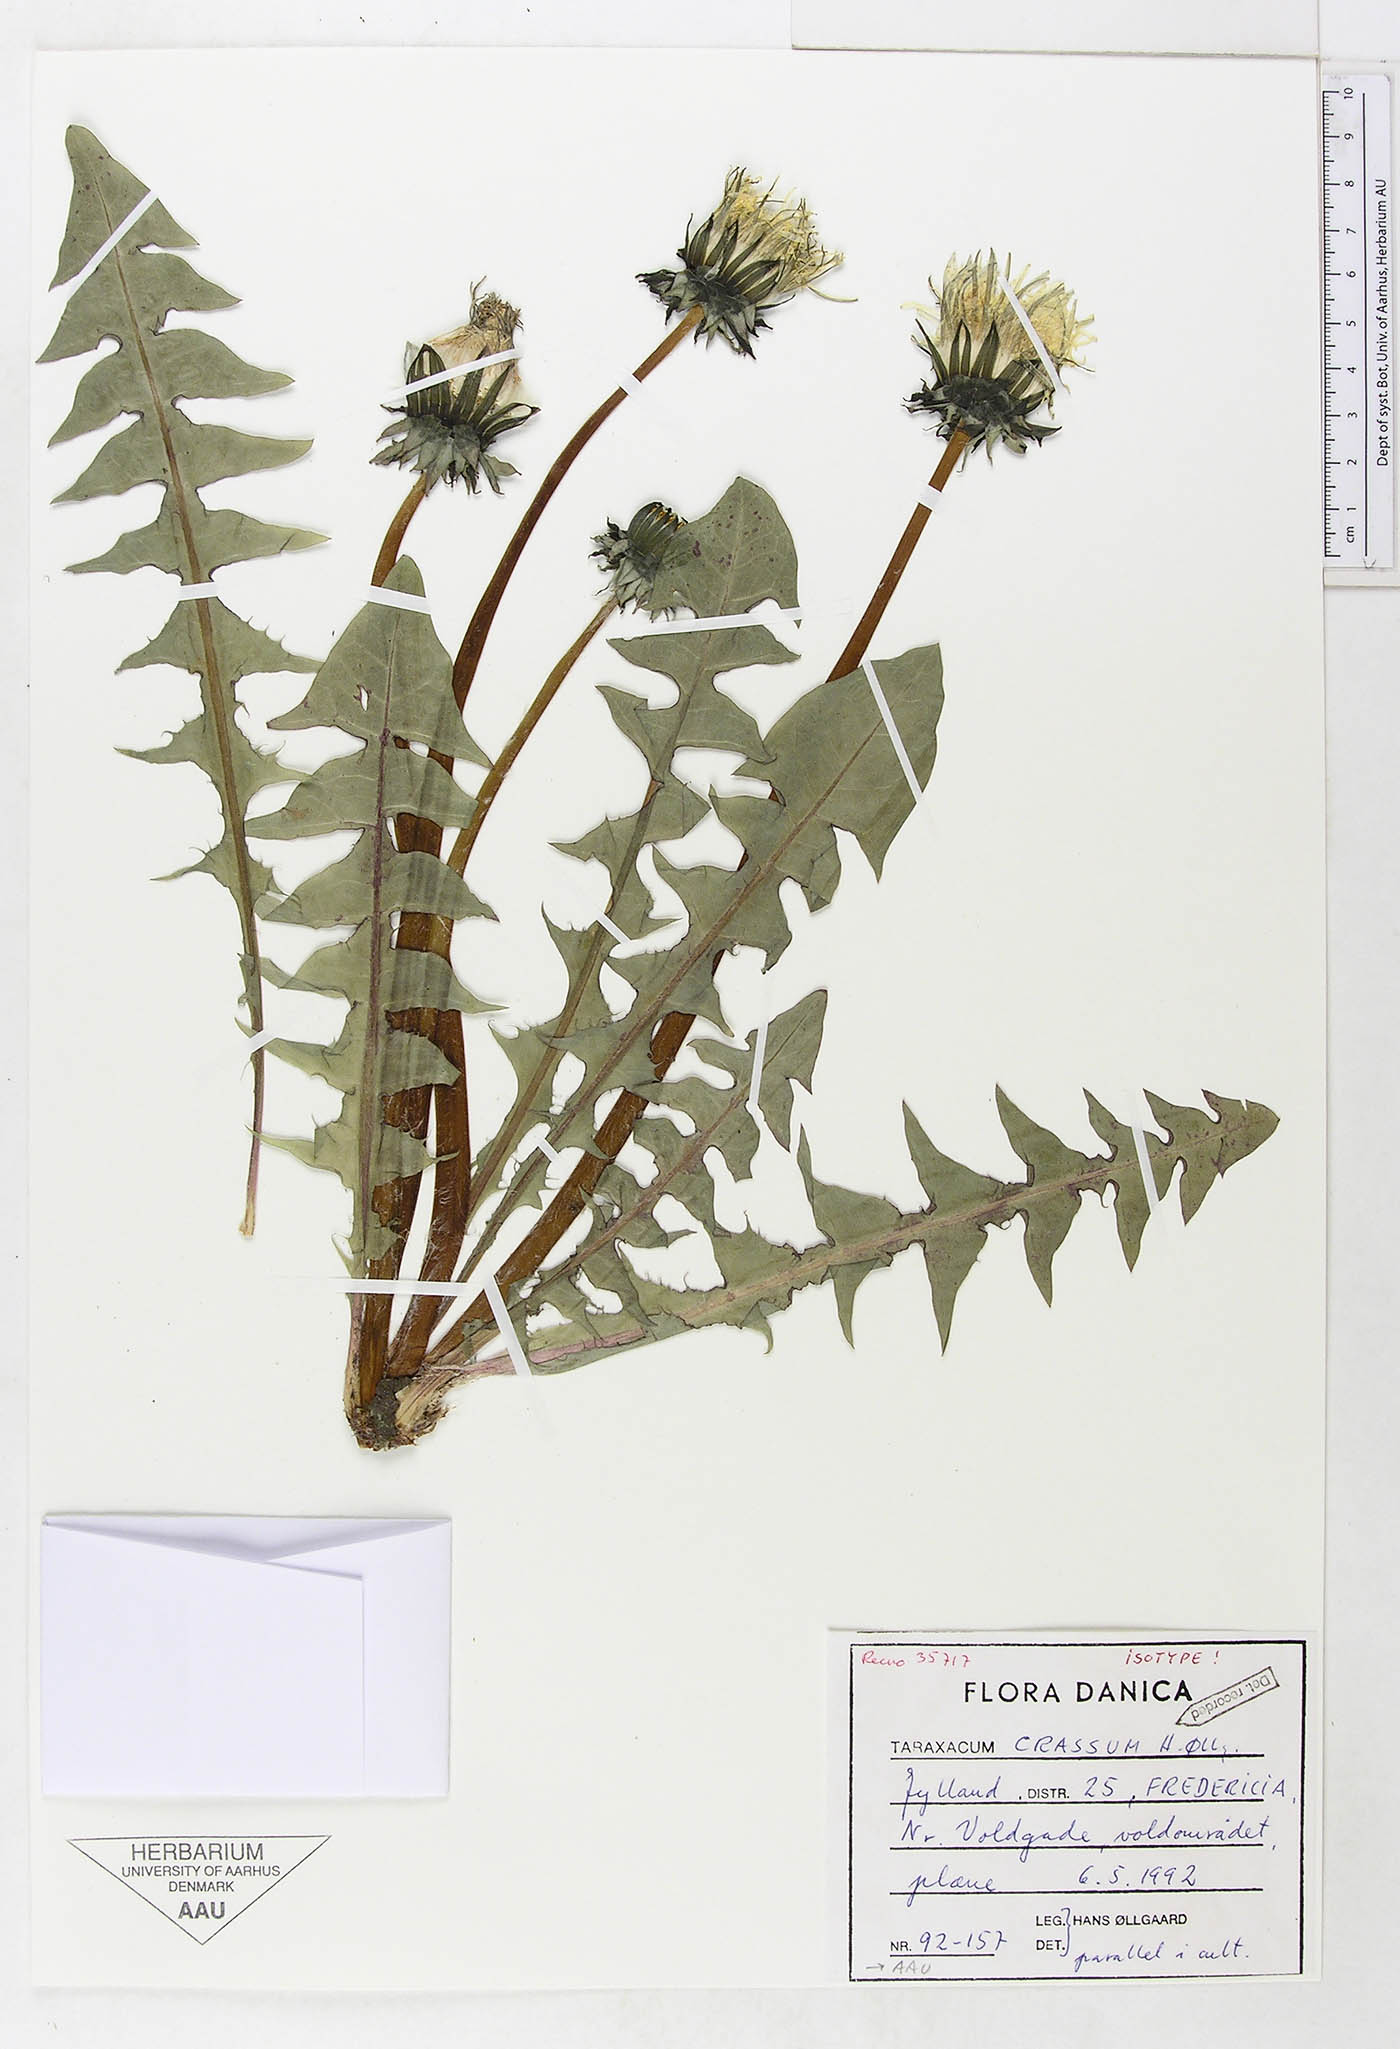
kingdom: Plantae
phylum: Tracheophyta
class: Magnoliopsida
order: Asterales
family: Asteraceae
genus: Taraxacum
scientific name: Taraxacum crassum
